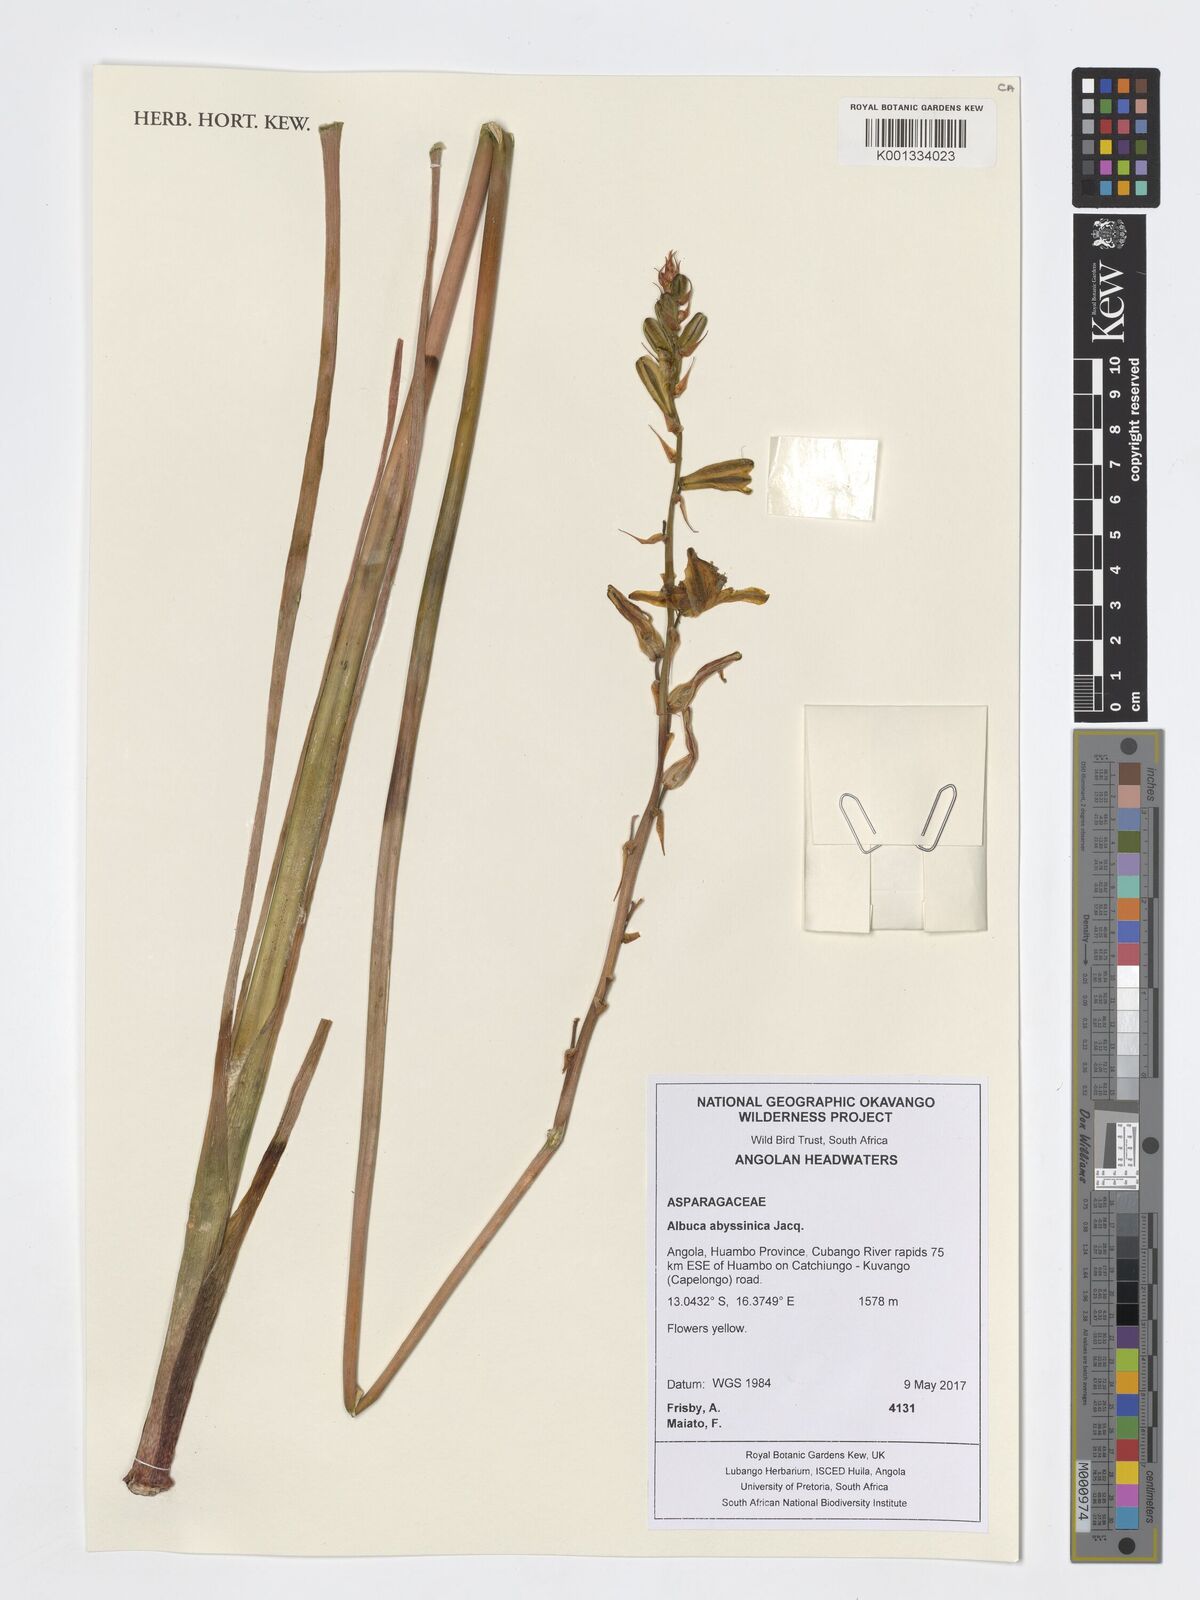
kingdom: Plantae
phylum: Tracheophyta
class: Liliopsida
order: Asparagales
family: Asparagaceae
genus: Albuca
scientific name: Albuca abyssinica
